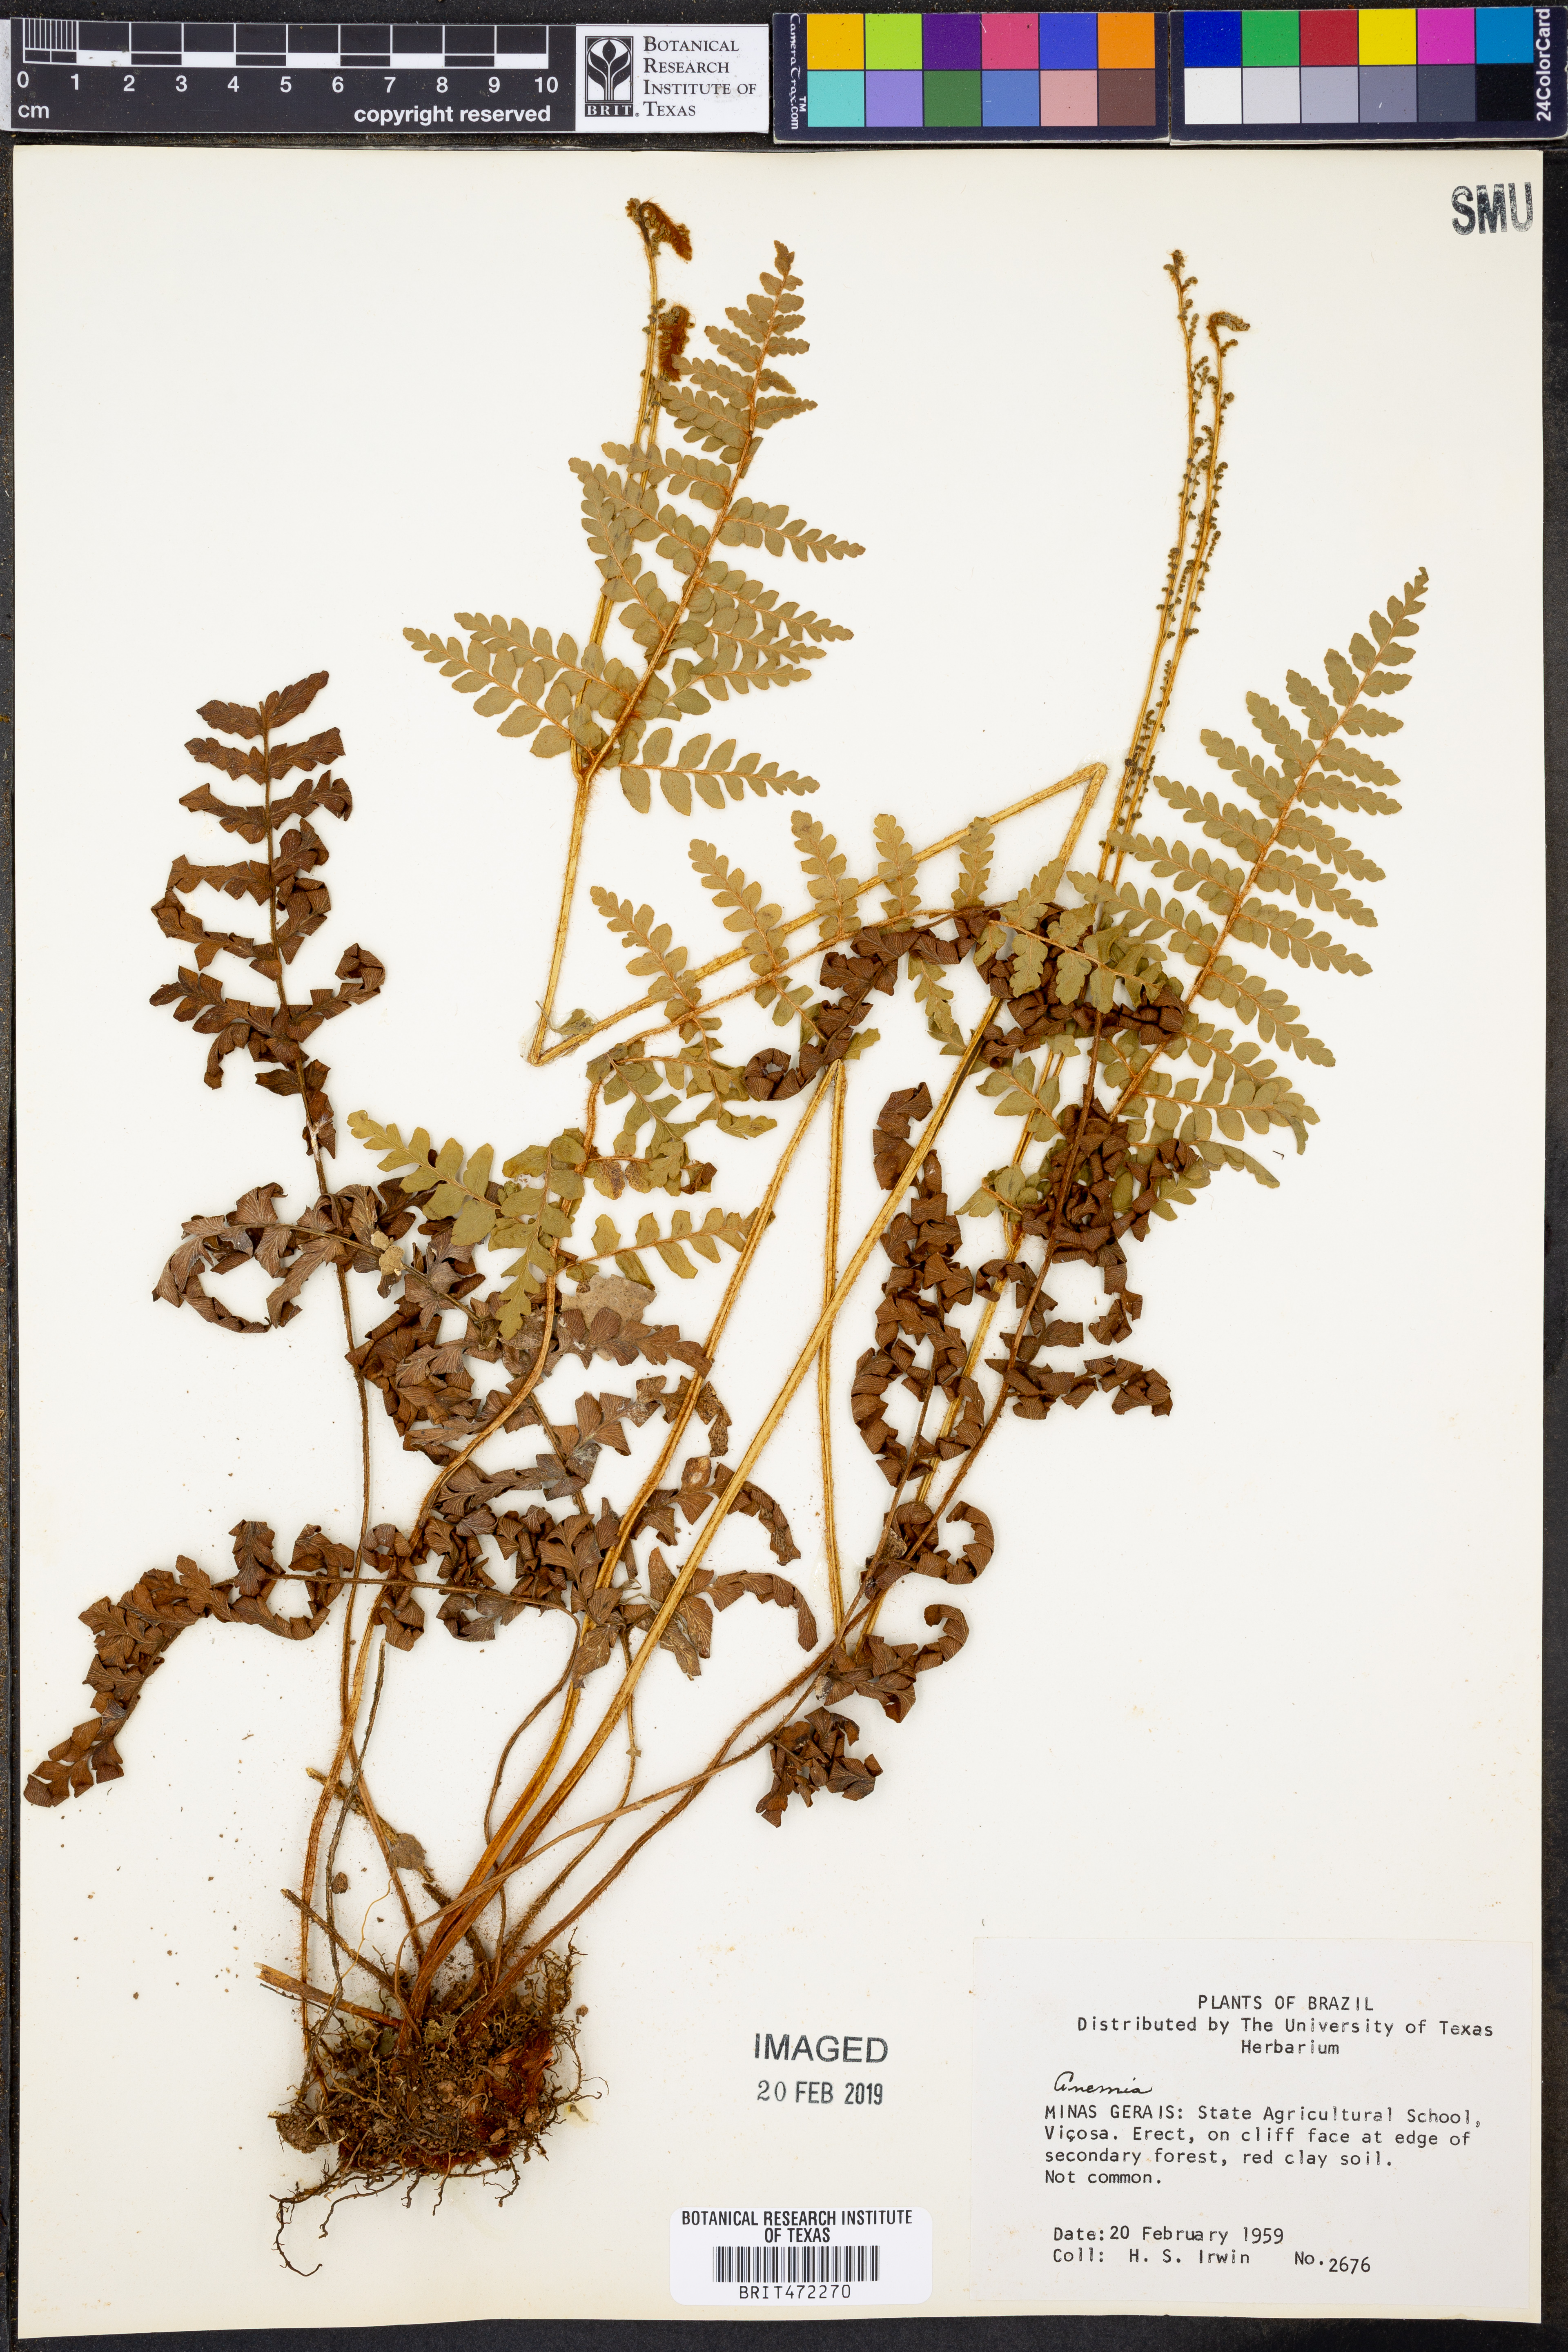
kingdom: Plantae
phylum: Tracheophyta
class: Polypodiopsida
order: Schizaeales
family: Anemiaceae
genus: Anemia
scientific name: Anemia
